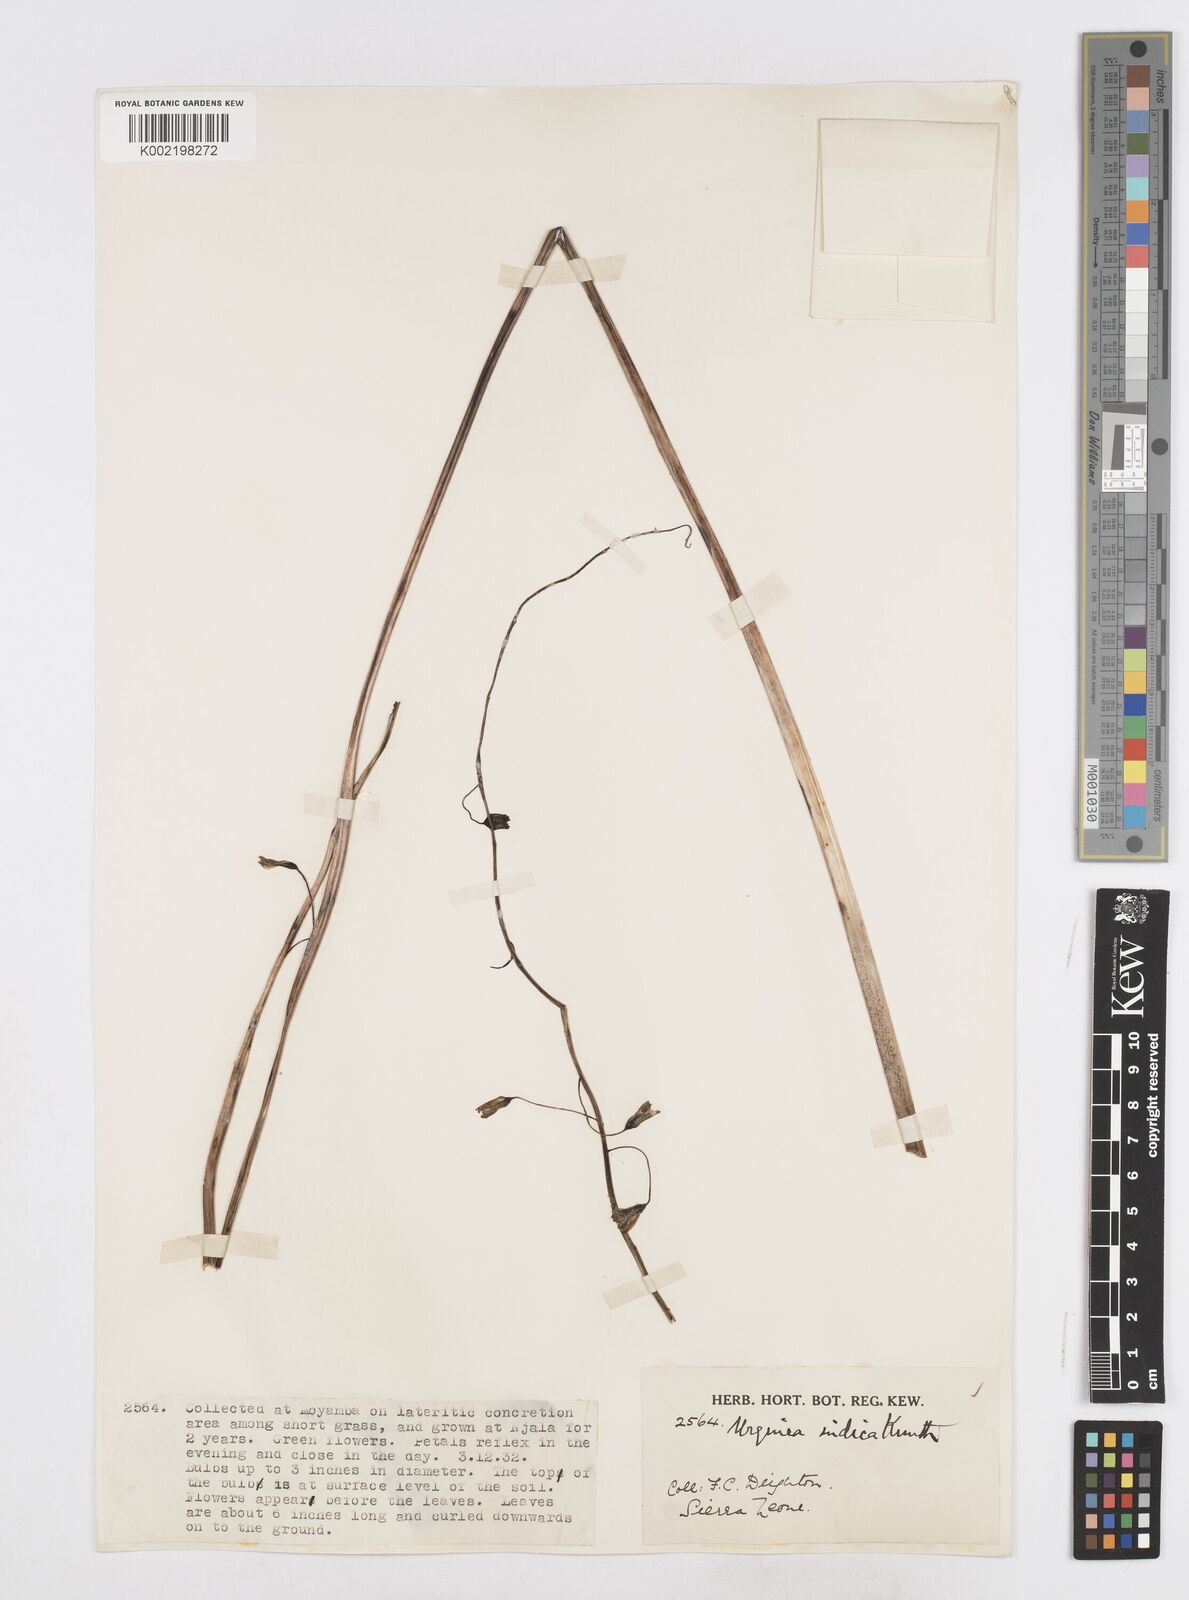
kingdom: Plantae
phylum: Tracheophyta
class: Liliopsida
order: Asparagales
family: Asparagaceae
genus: Drimia
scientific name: Drimia indica
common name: Indian-squill
